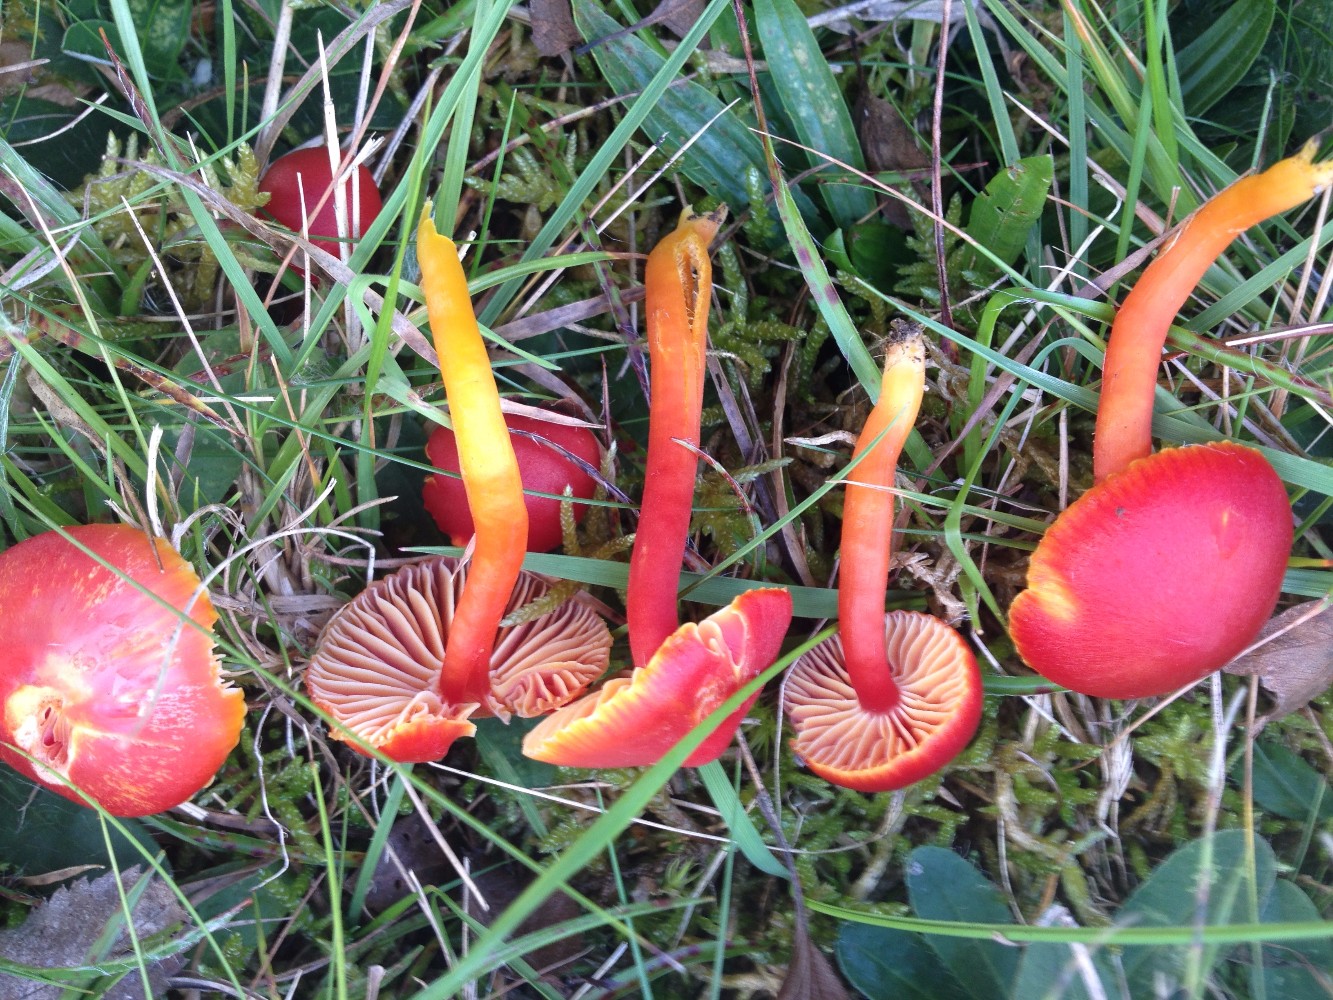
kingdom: Fungi
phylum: Basidiomycota
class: Agaricomycetes
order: Agaricales
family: Hygrophoraceae
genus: Hygrocybe
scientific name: Hygrocybe coccinea
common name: cinnober-vokshat
